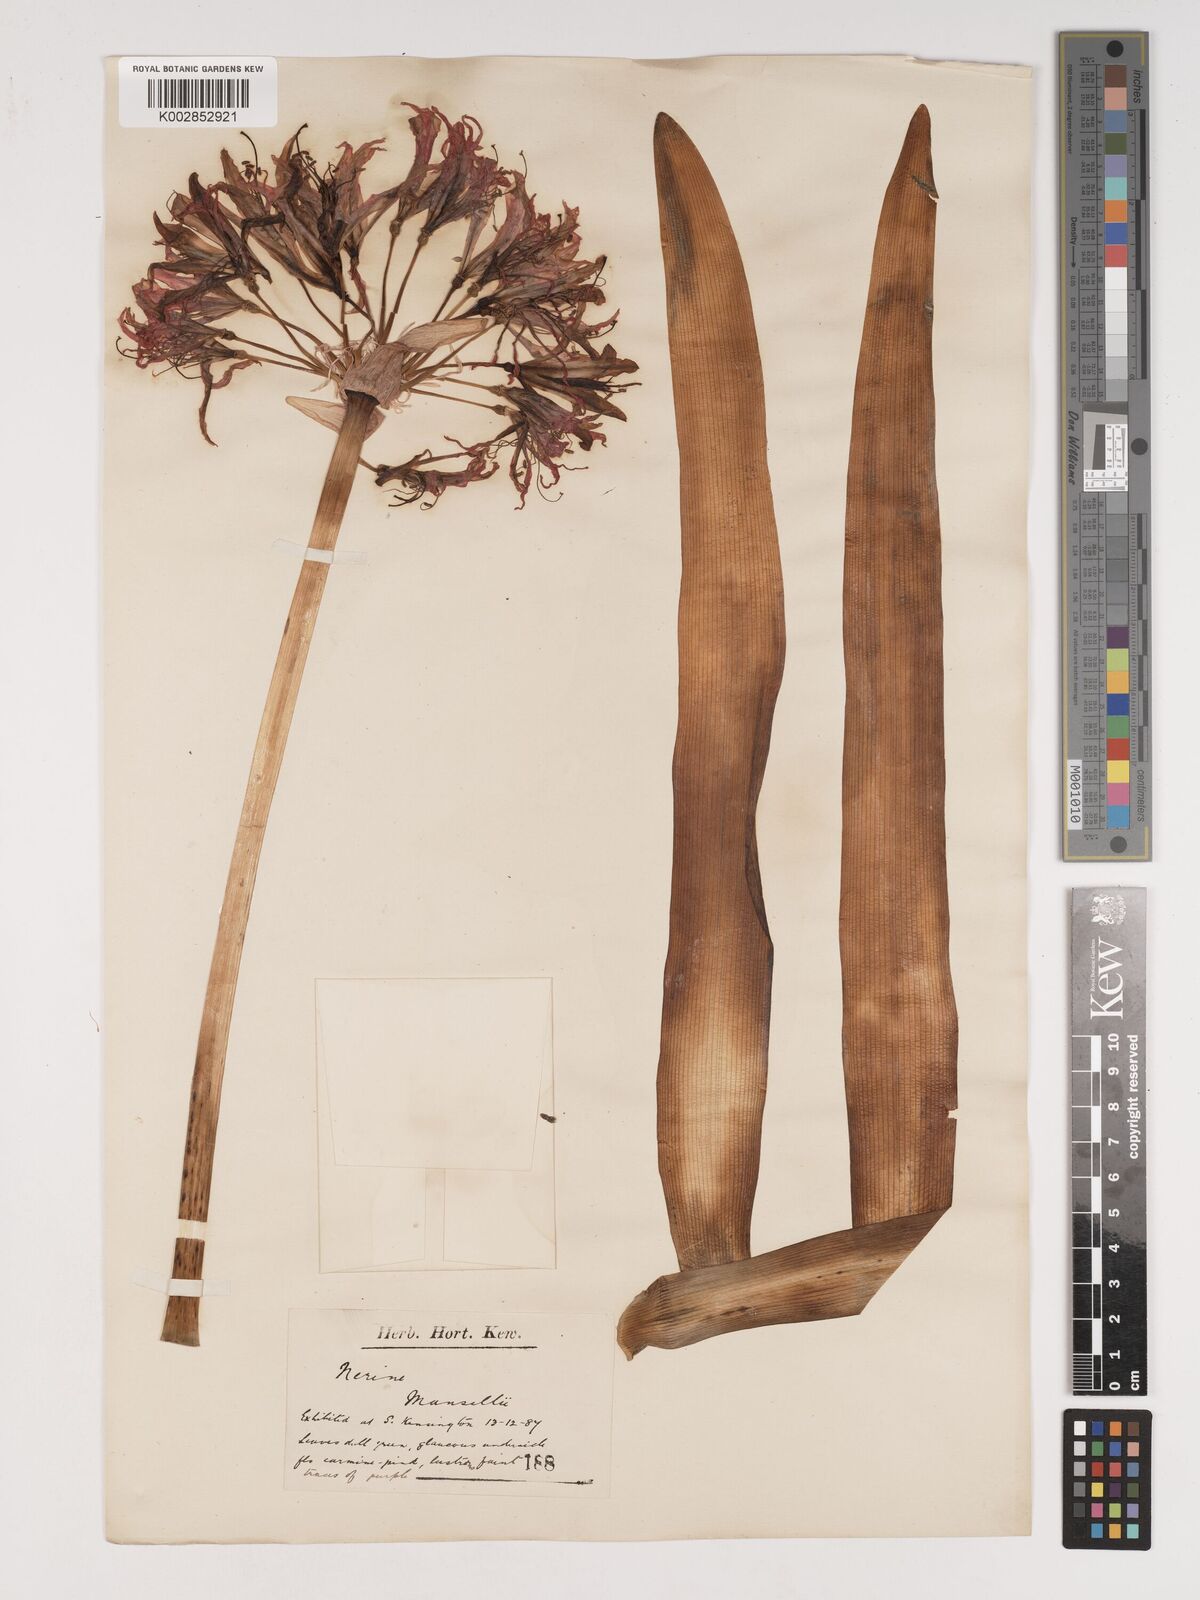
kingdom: Plantae
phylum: Tracheophyta
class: Liliopsida
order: Asparagales
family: Amaryllidaceae
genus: Nerine
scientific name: Nerine sarniensis
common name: Guernsey-lily
